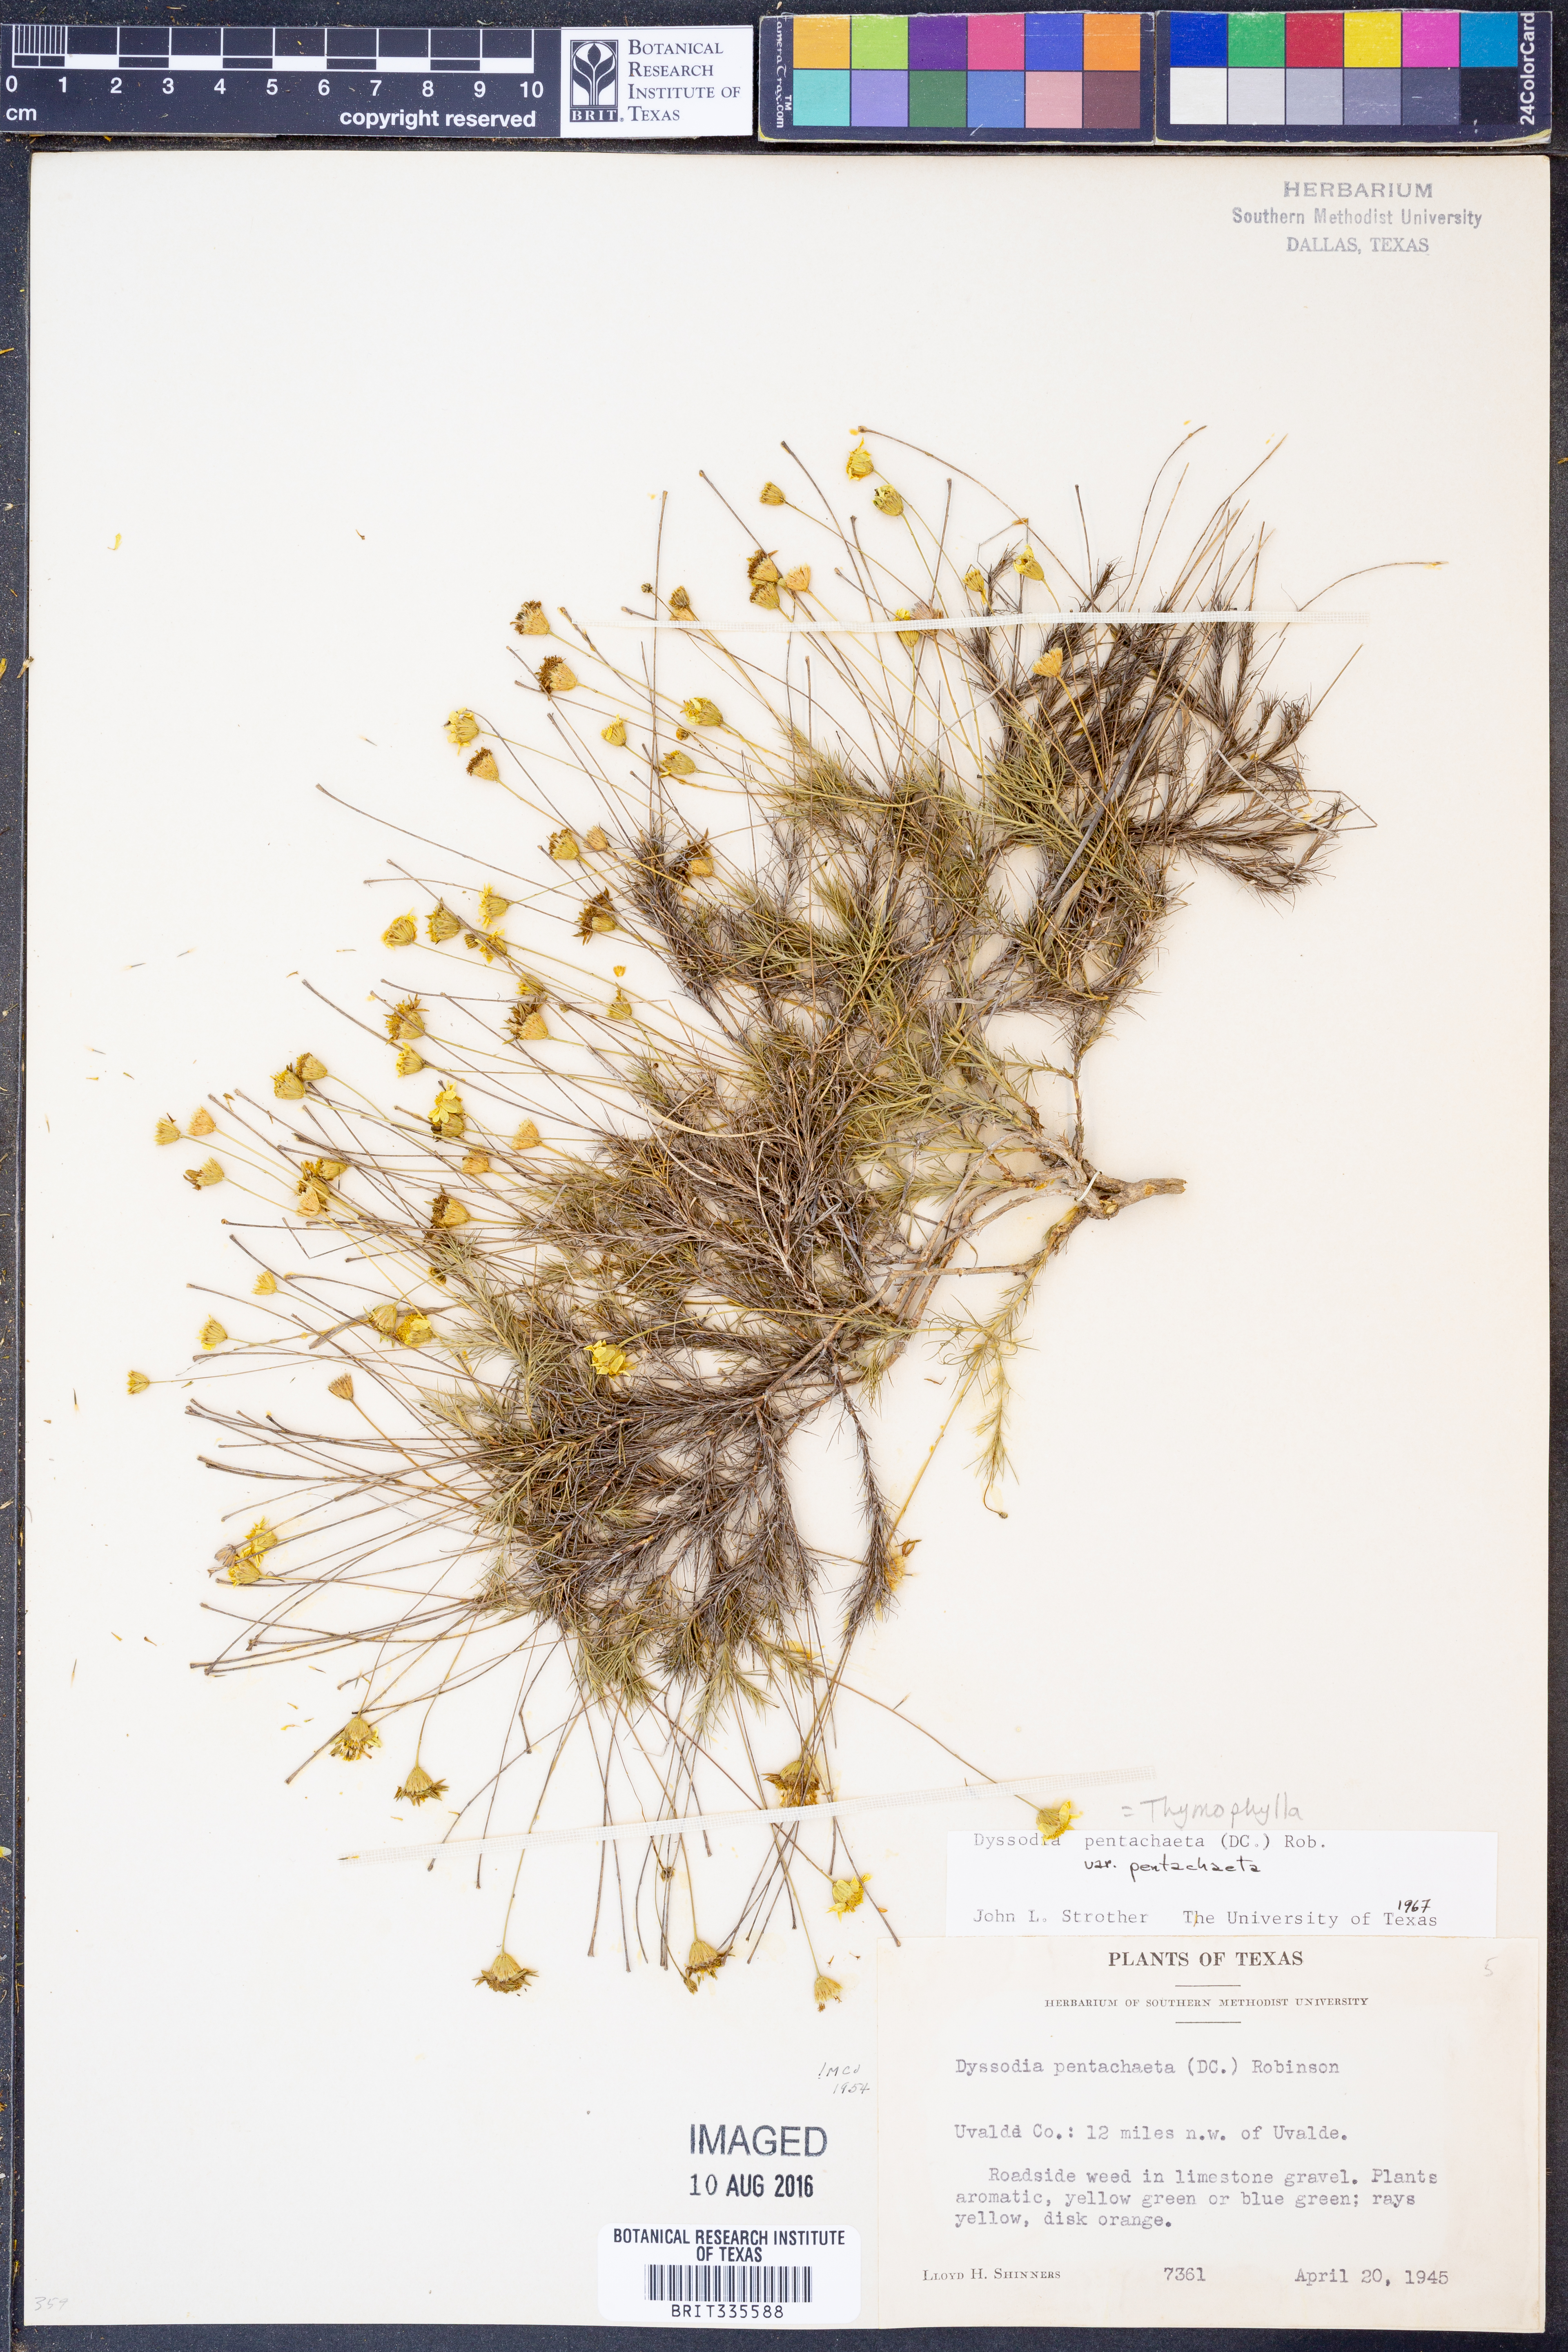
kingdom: Plantae
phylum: Tracheophyta
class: Magnoliopsida
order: Asterales
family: Asteraceae
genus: Thymophylla
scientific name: Thymophylla pentachaeta
